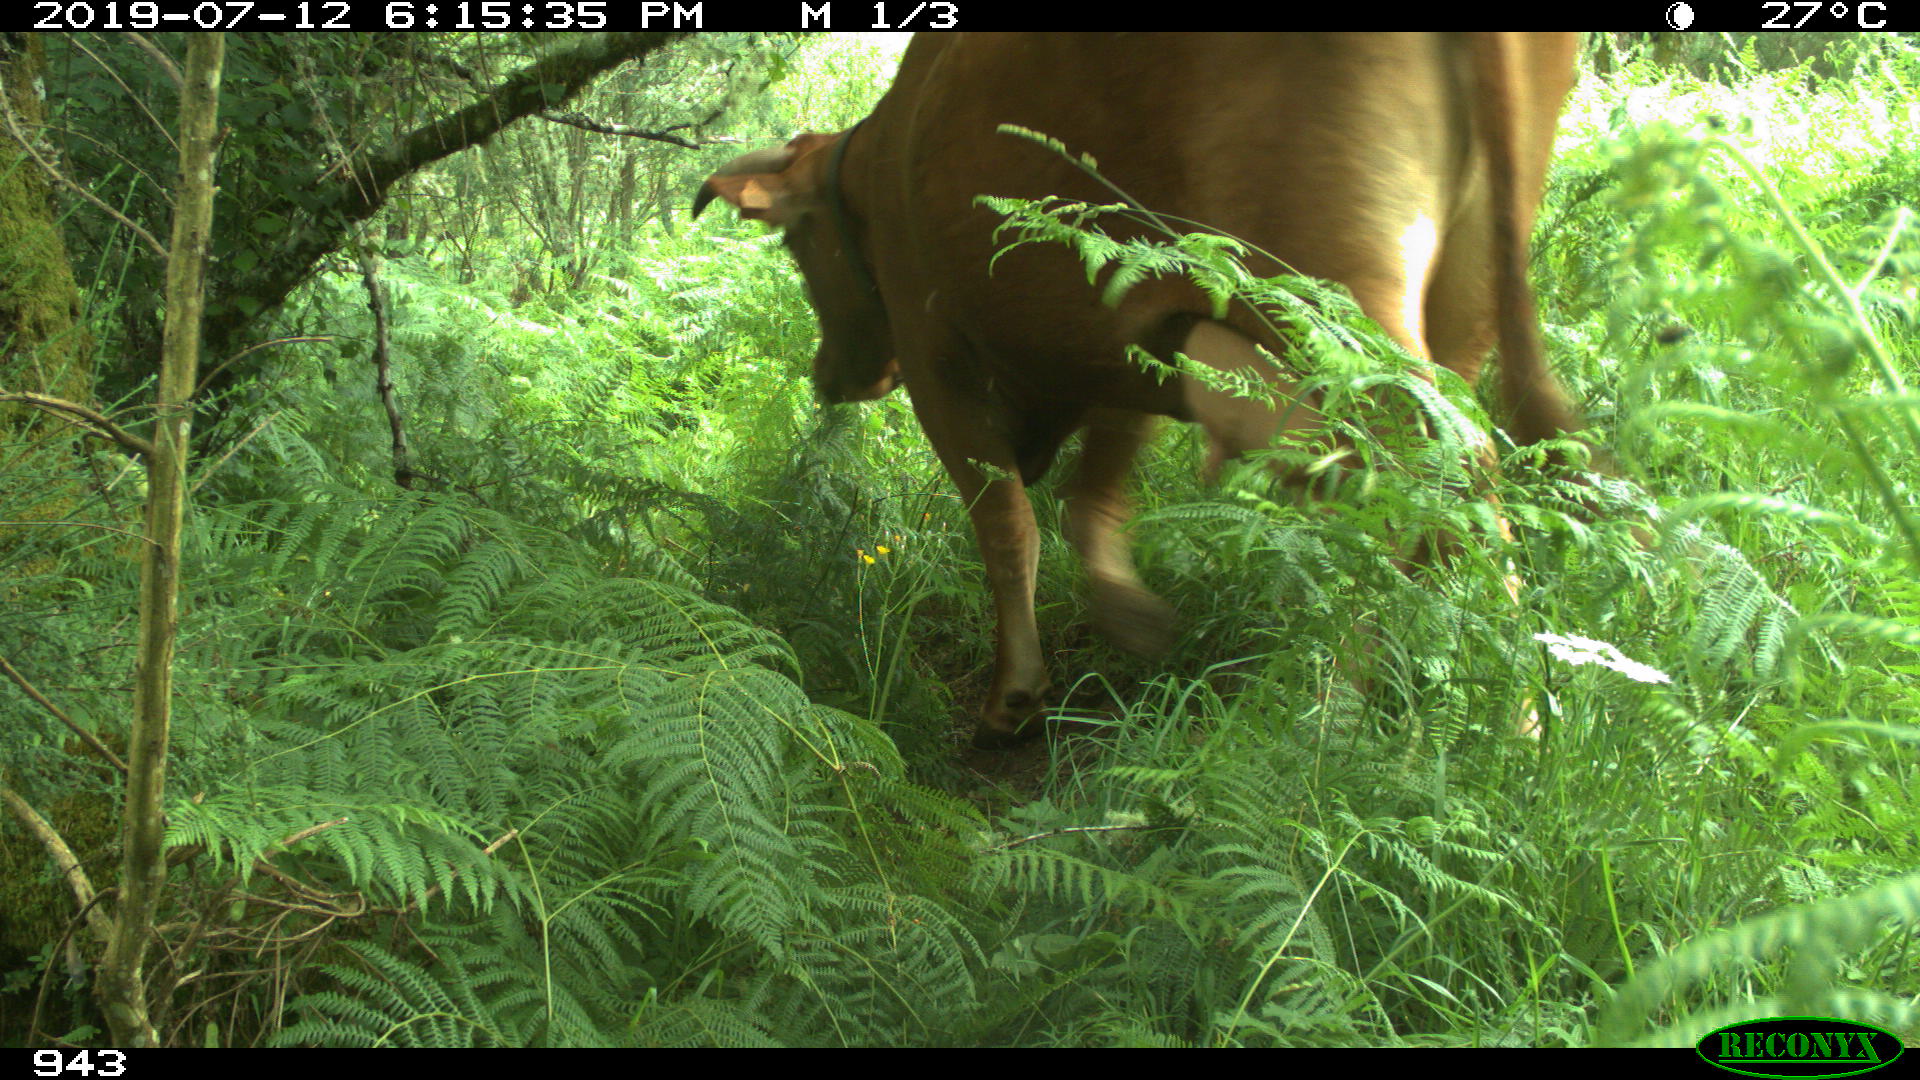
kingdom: Animalia
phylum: Chordata
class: Mammalia
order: Artiodactyla
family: Bovidae
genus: Bos
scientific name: Bos taurus
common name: Domesticated cattle
